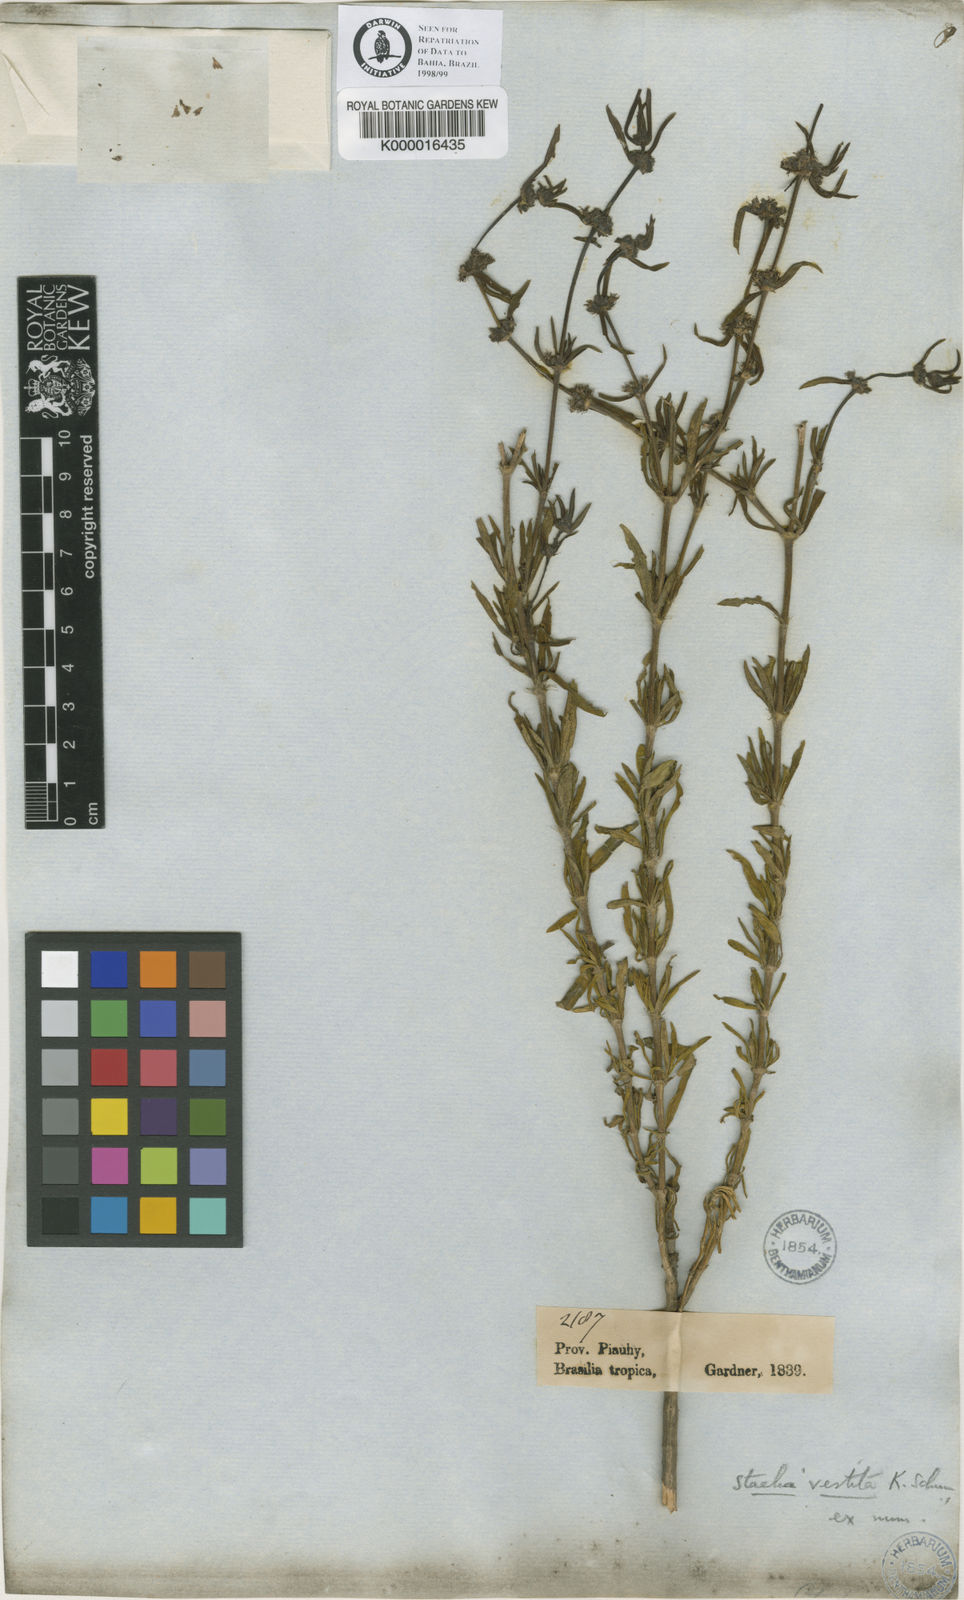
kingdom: Plantae
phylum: Tracheophyta
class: Magnoliopsida
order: Gentianales
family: Rubiaceae
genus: Staelia
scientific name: Staelia vestita
